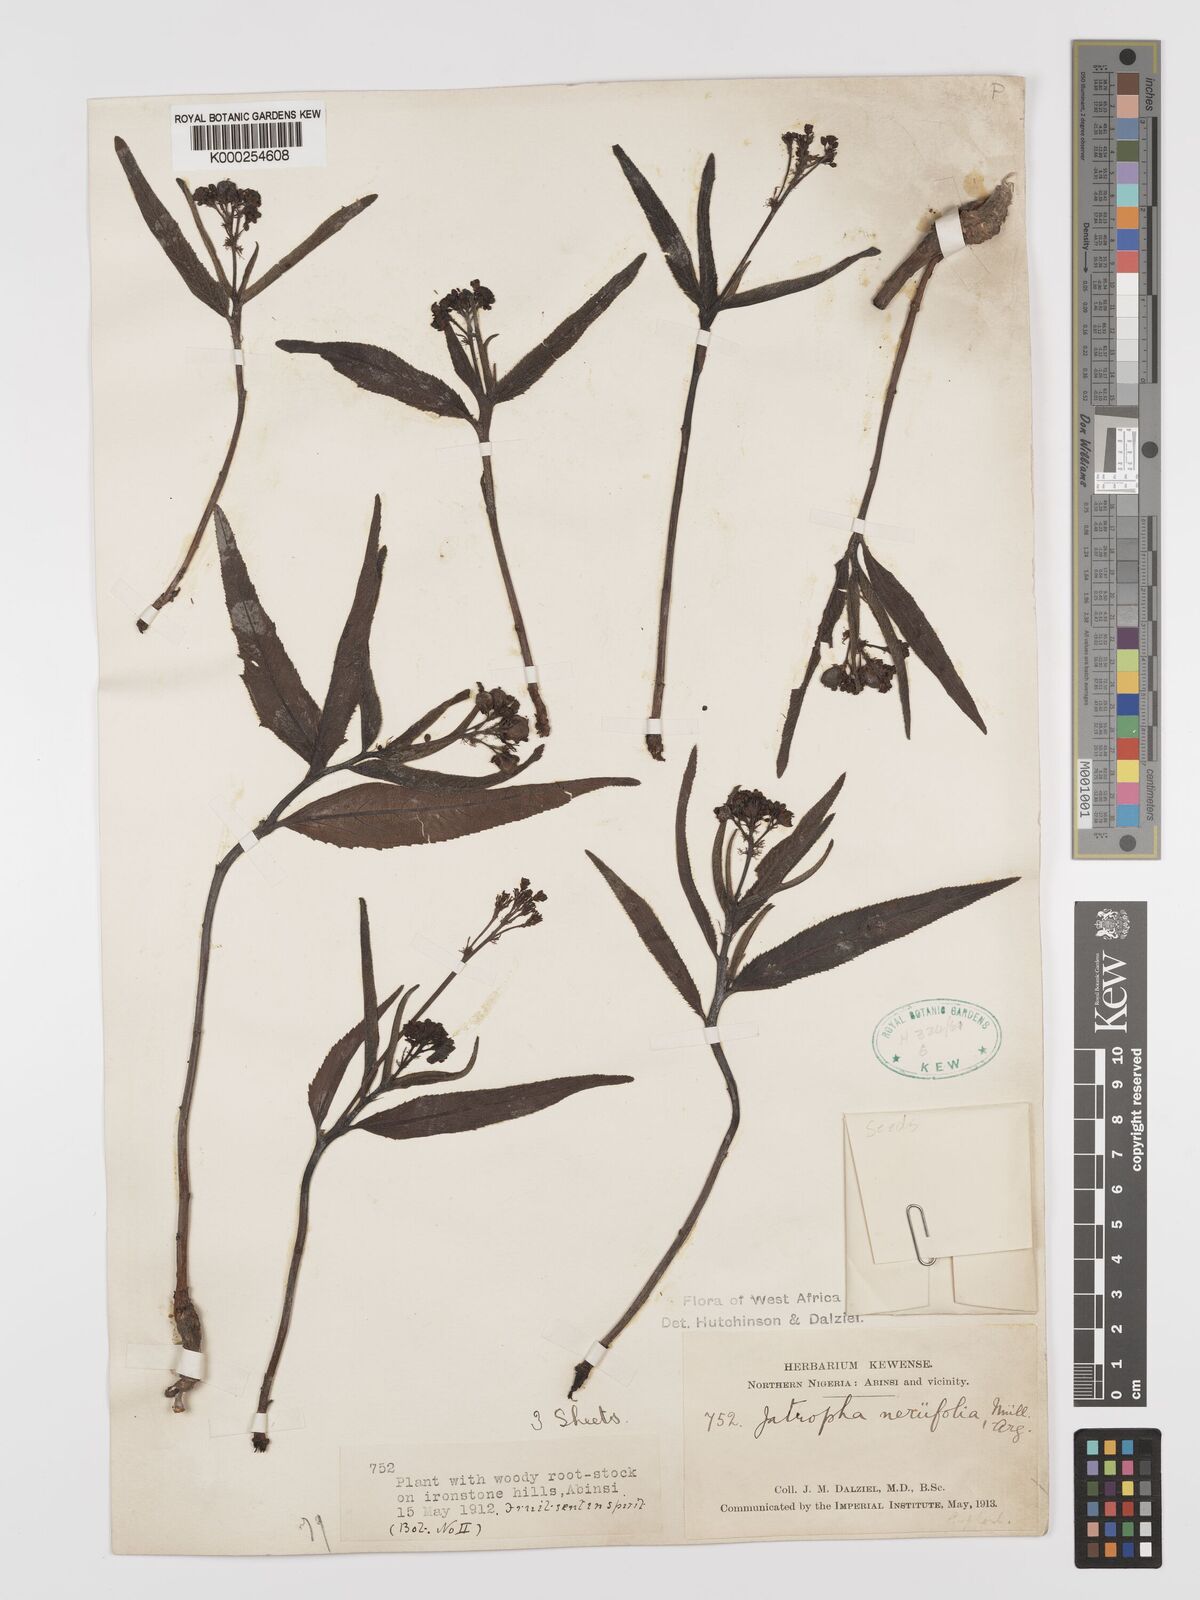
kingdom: Plantae
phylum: Tracheophyta
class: Magnoliopsida
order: Malpighiales
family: Euphorbiaceae
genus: Jatropha
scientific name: Jatropha
